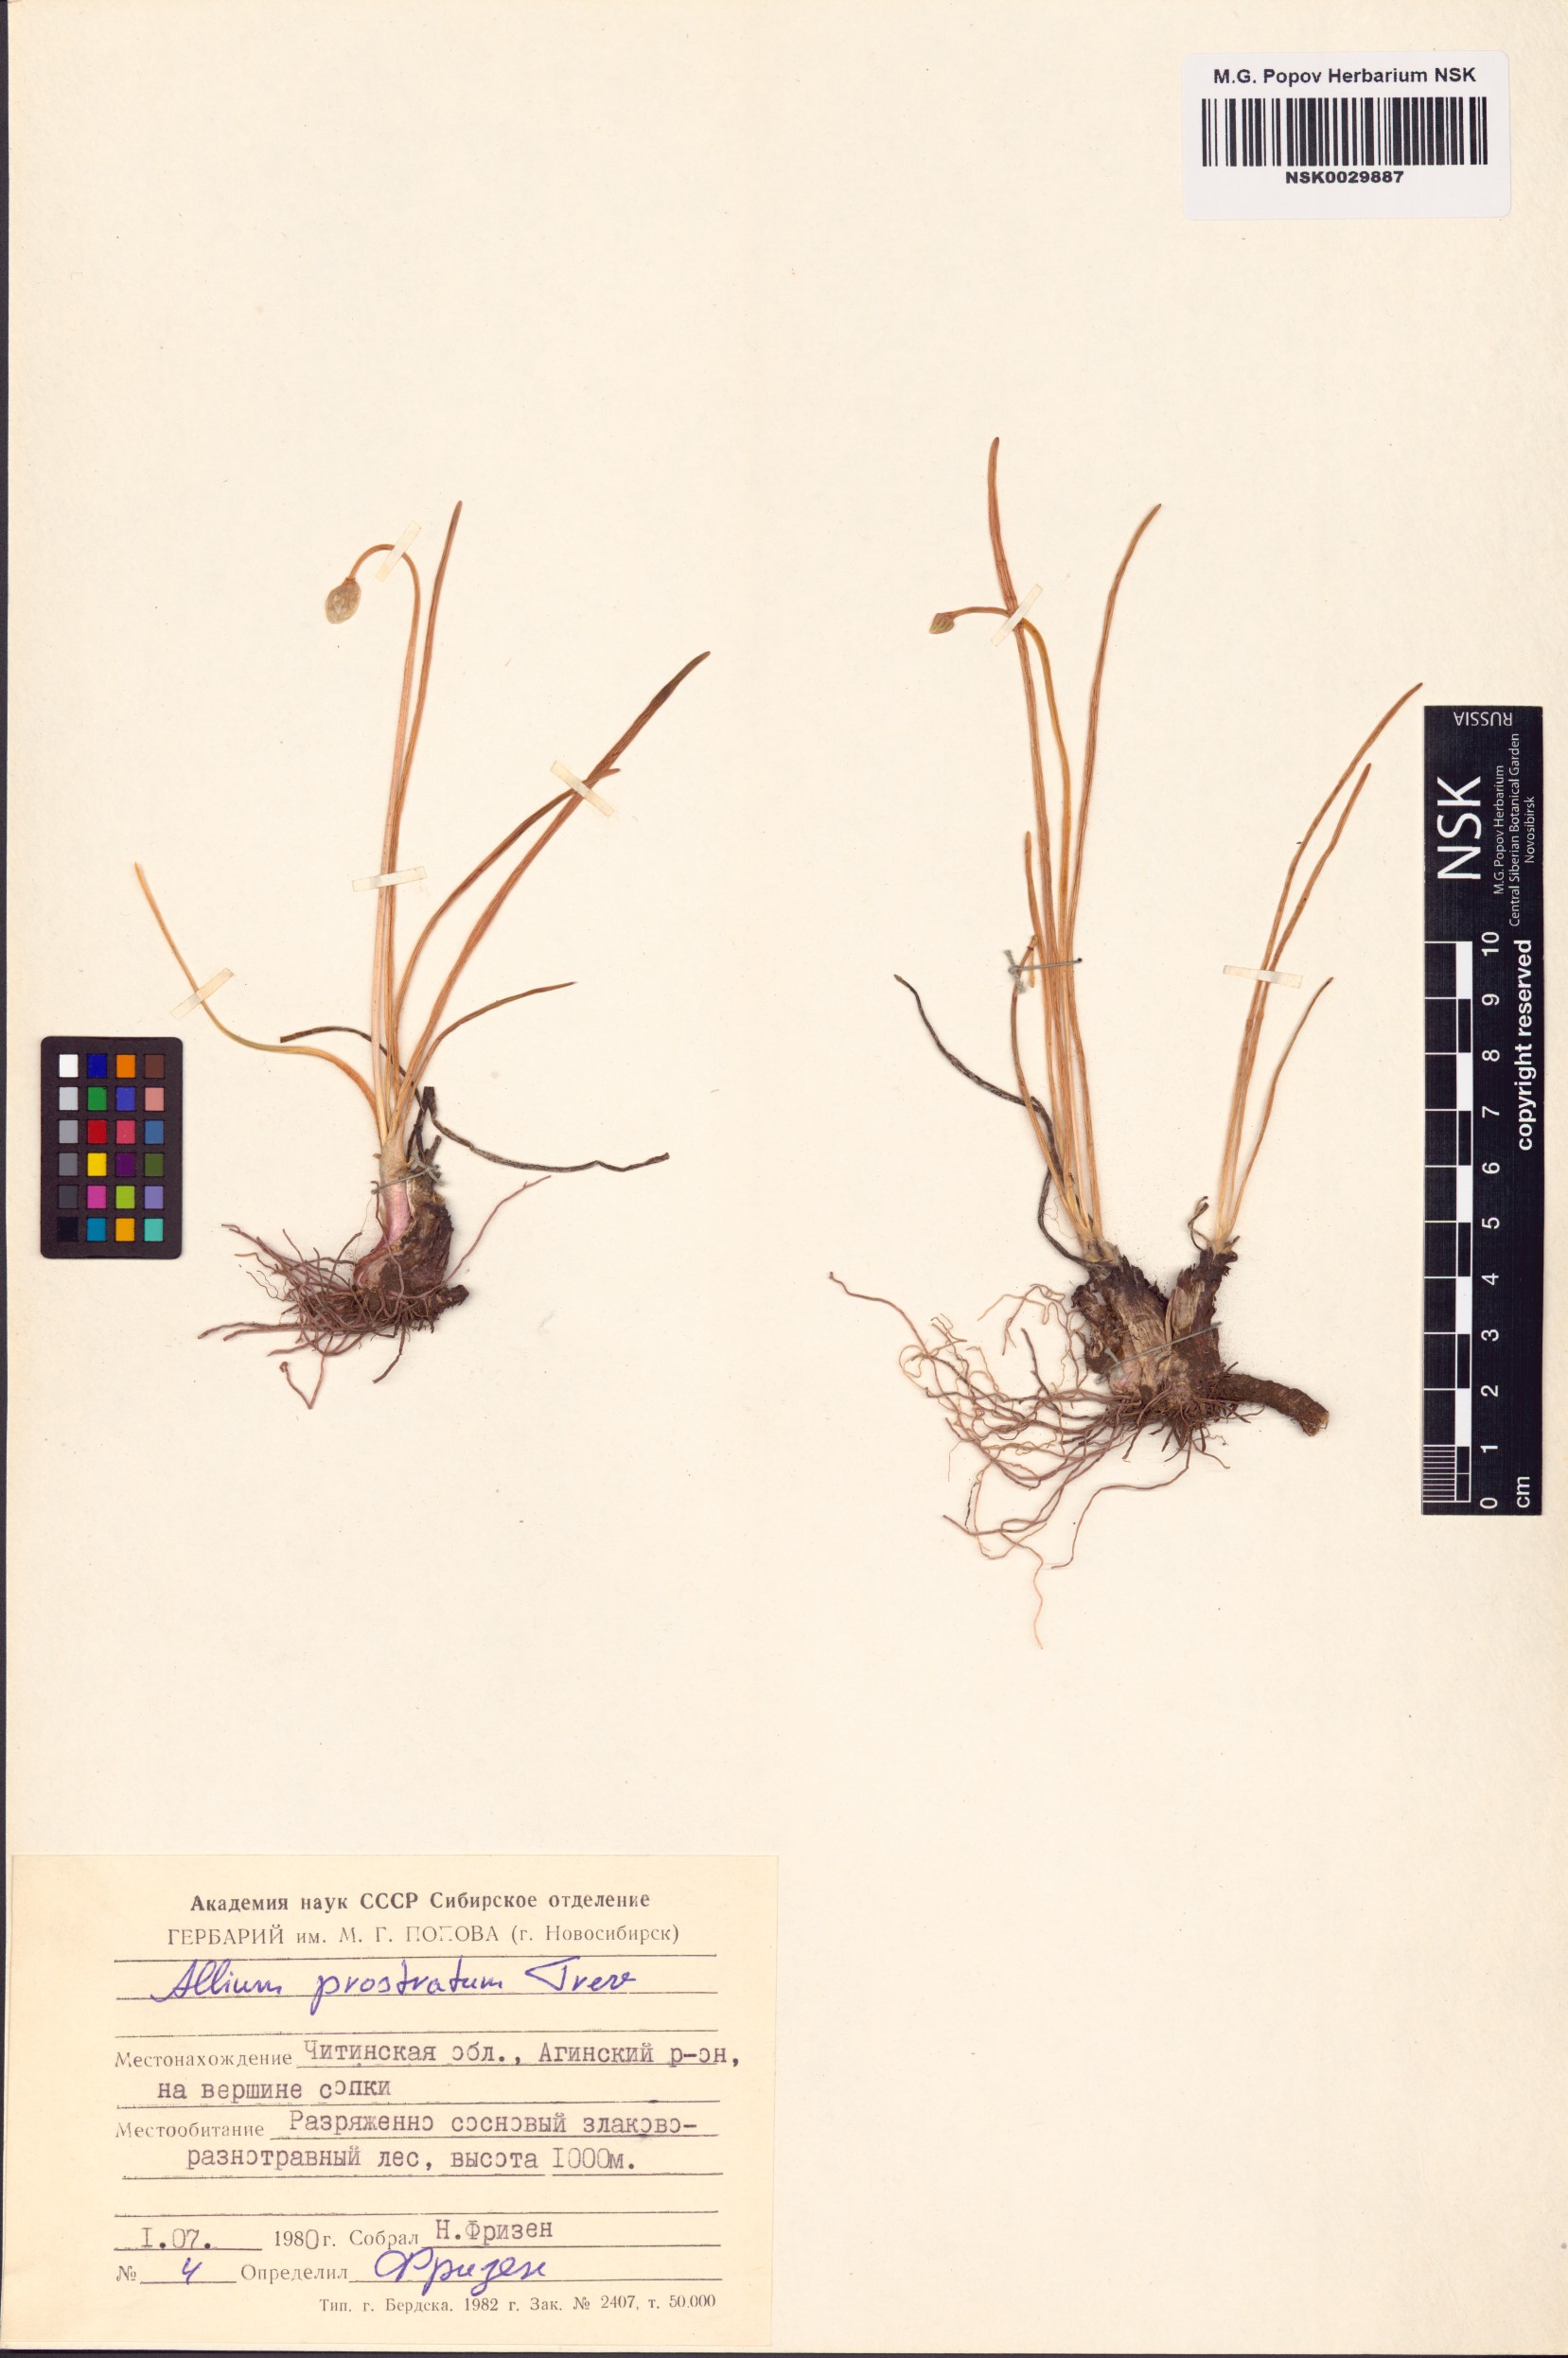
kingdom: Plantae
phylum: Tracheophyta
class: Liliopsida
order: Asparagales
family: Amaryllidaceae
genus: Allium
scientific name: Allium prostratum
